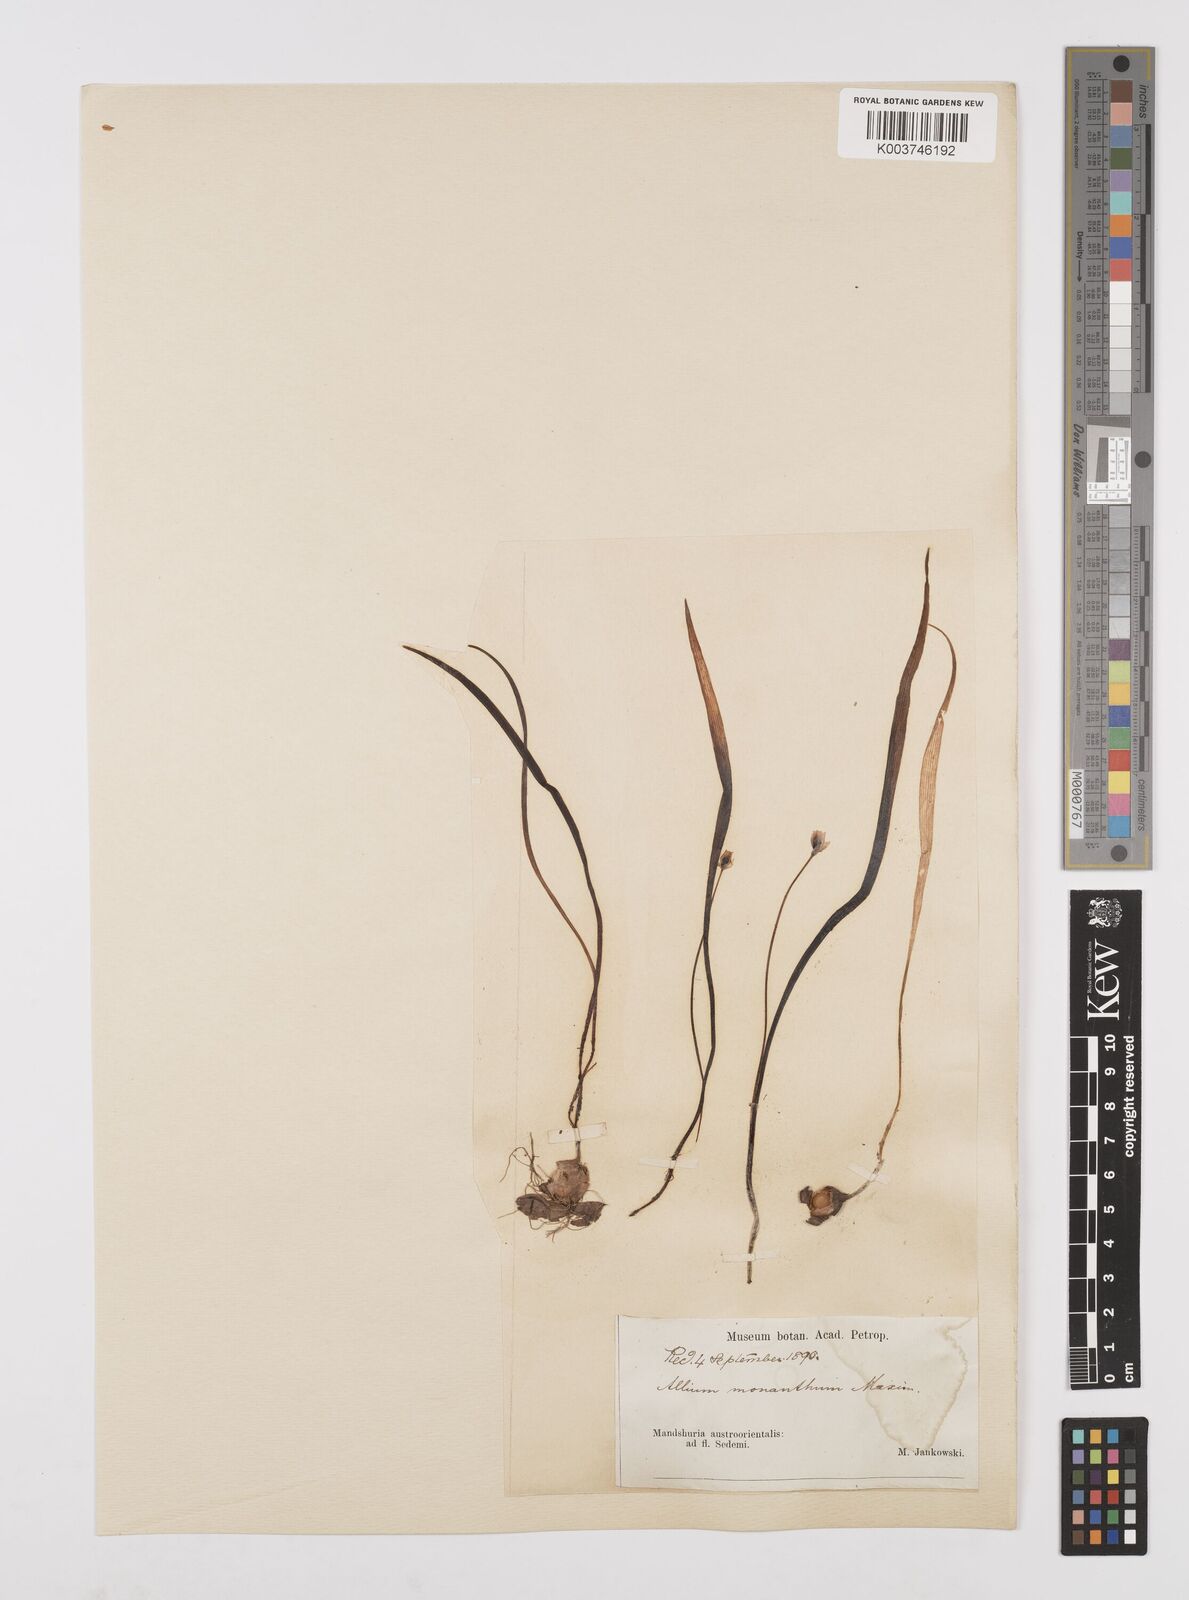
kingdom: Plantae
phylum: Tracheophyta
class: Liliopsida
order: Asparagales
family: Amaryllidaceae
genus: Allium
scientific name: Allium monanthum
